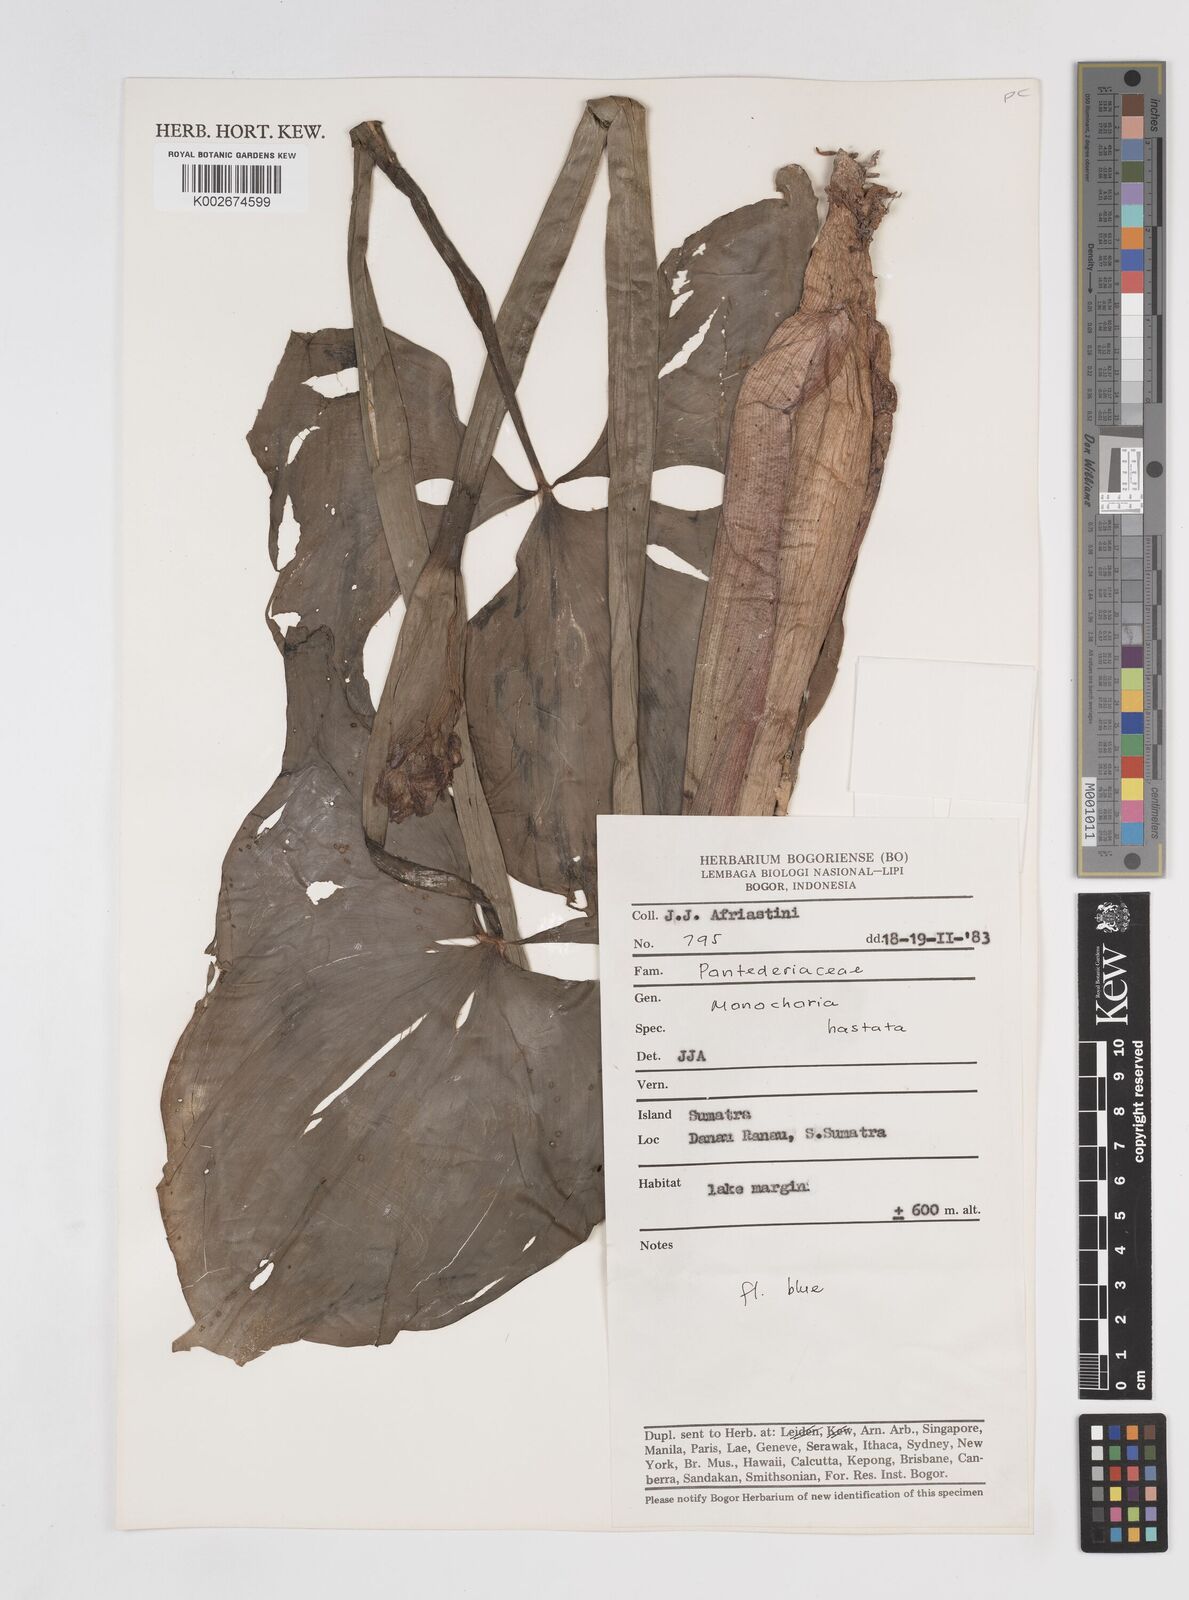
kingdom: Plantae
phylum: Tracheophyta
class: Liliopsida
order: Commelinales
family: Pontederiaceae
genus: Pontederia
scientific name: Pontederia hastata
